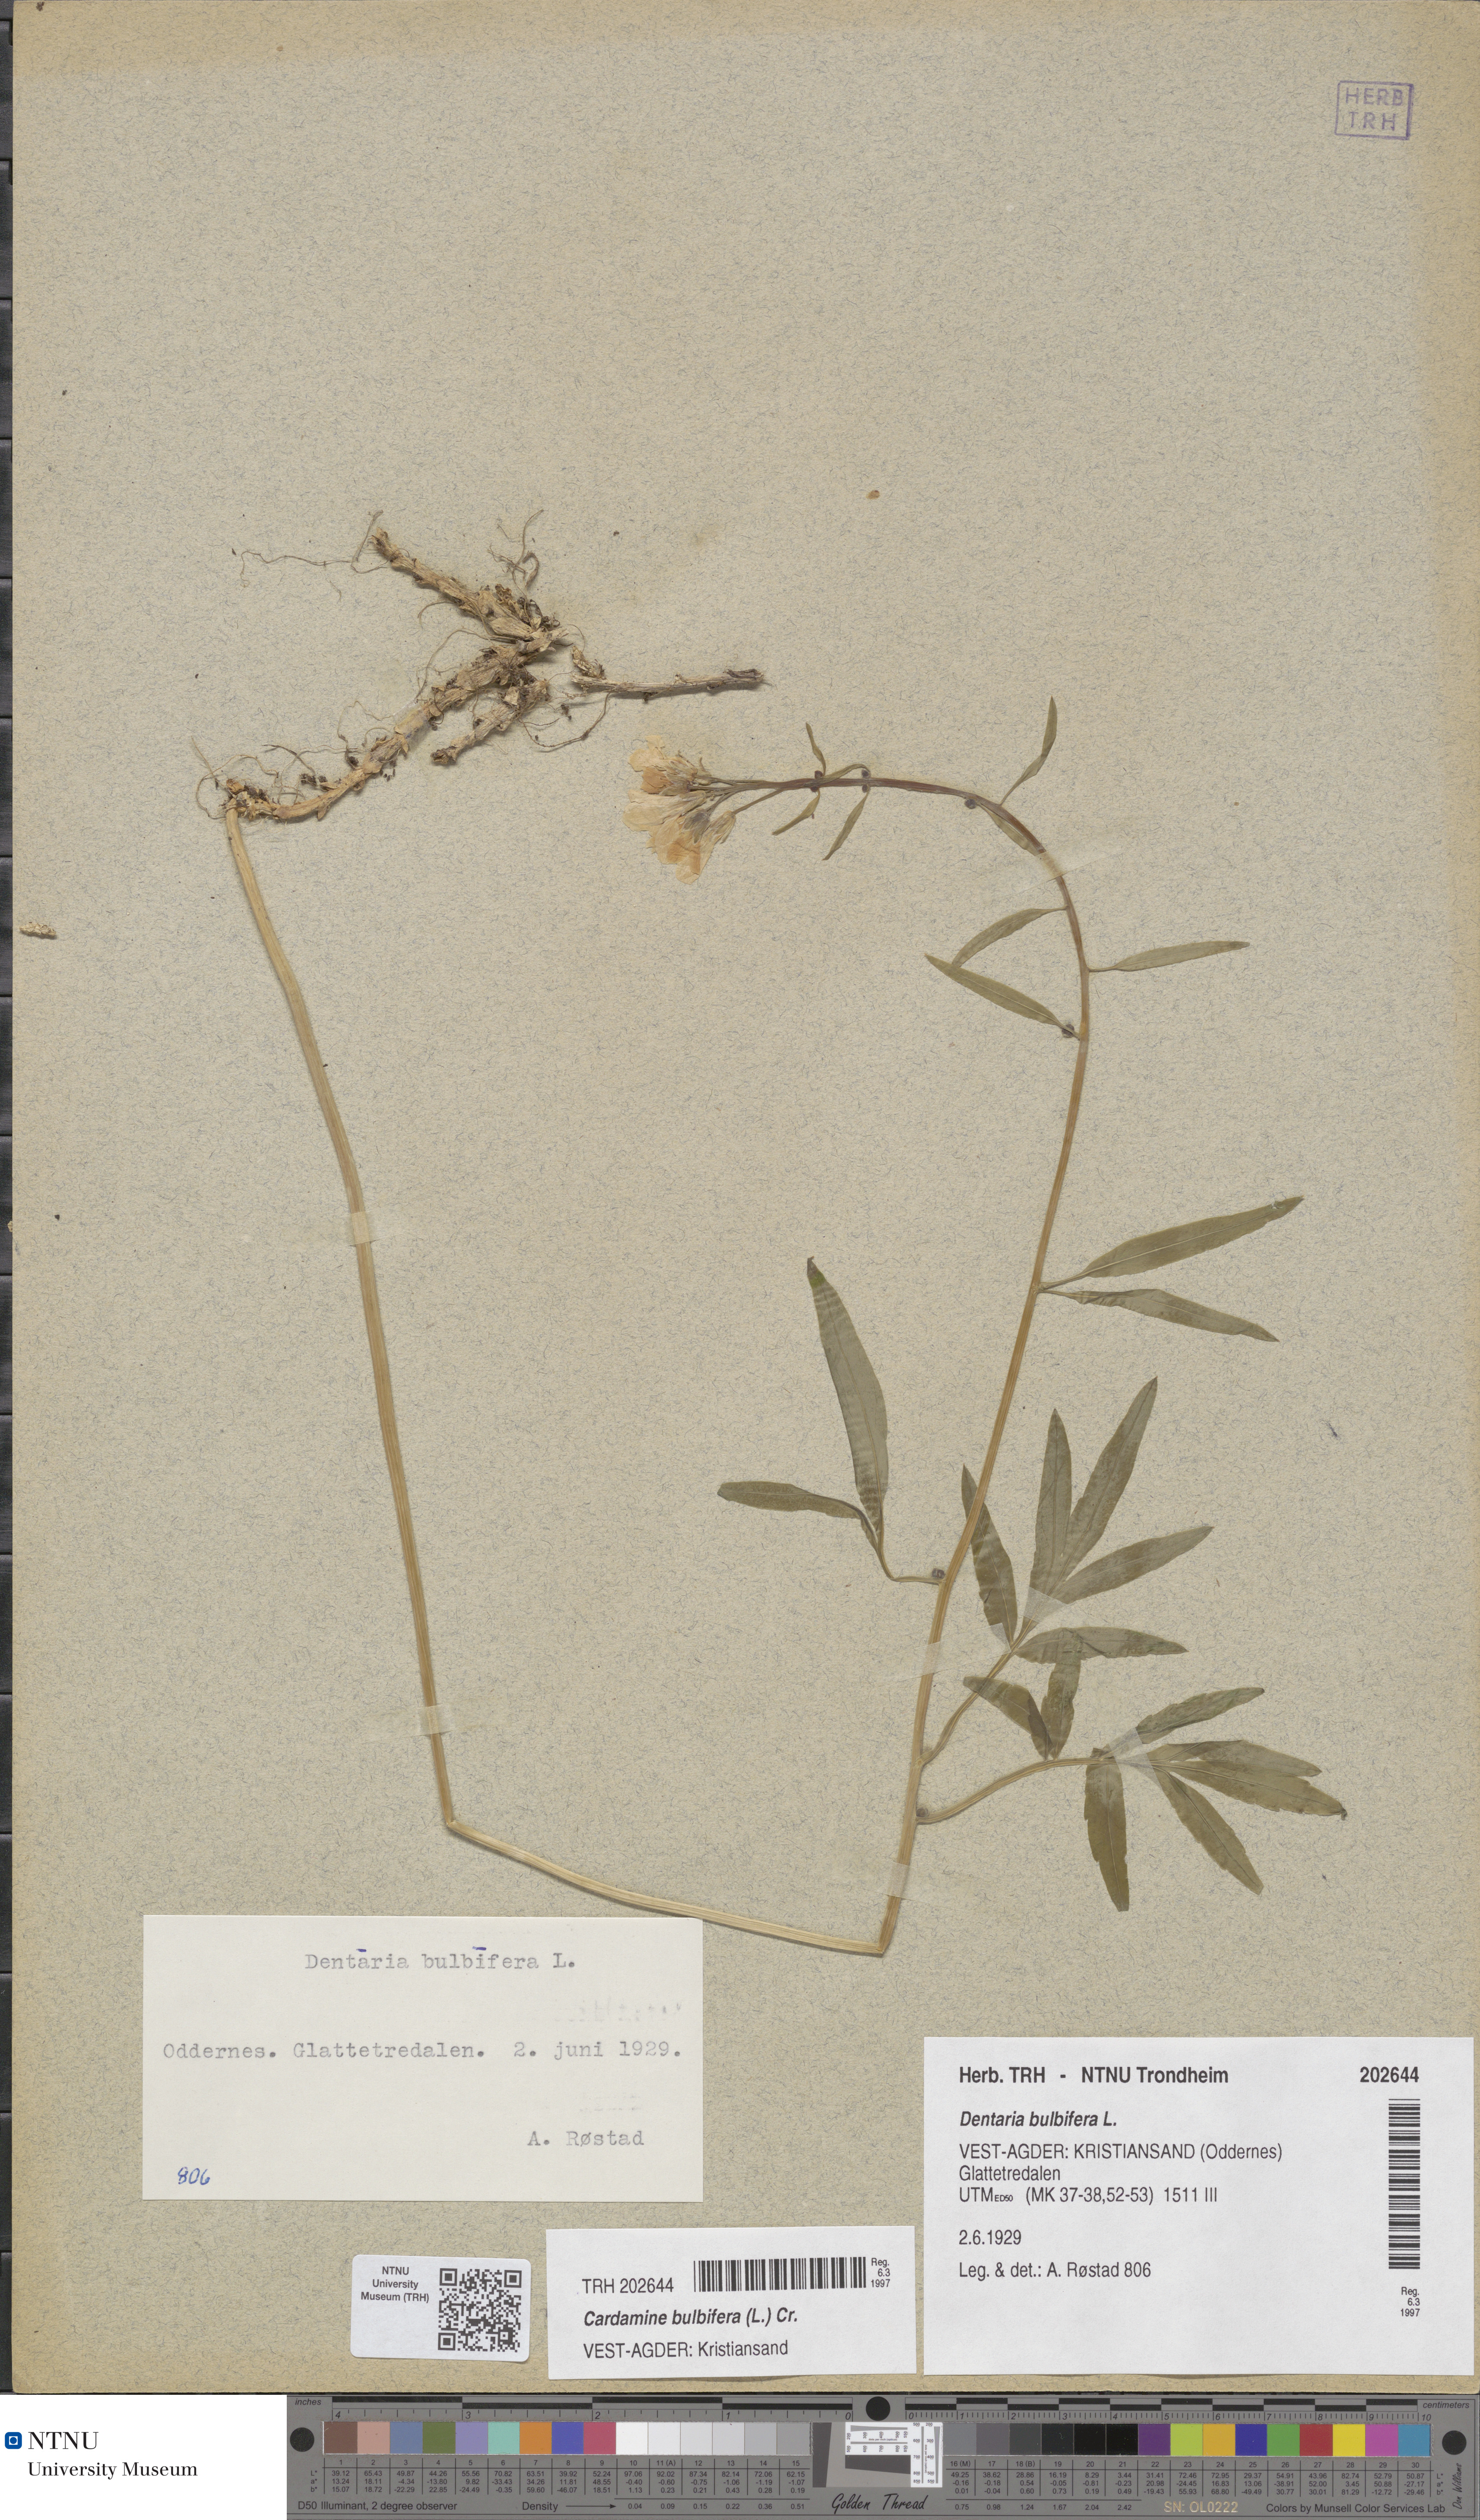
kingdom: Plantae
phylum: Tracheophyta
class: Magnoliopsida
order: Brassicales
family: Brassicaceae
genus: Cardamine
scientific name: Cardamine bulbifera
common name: Coralroot bittercress
